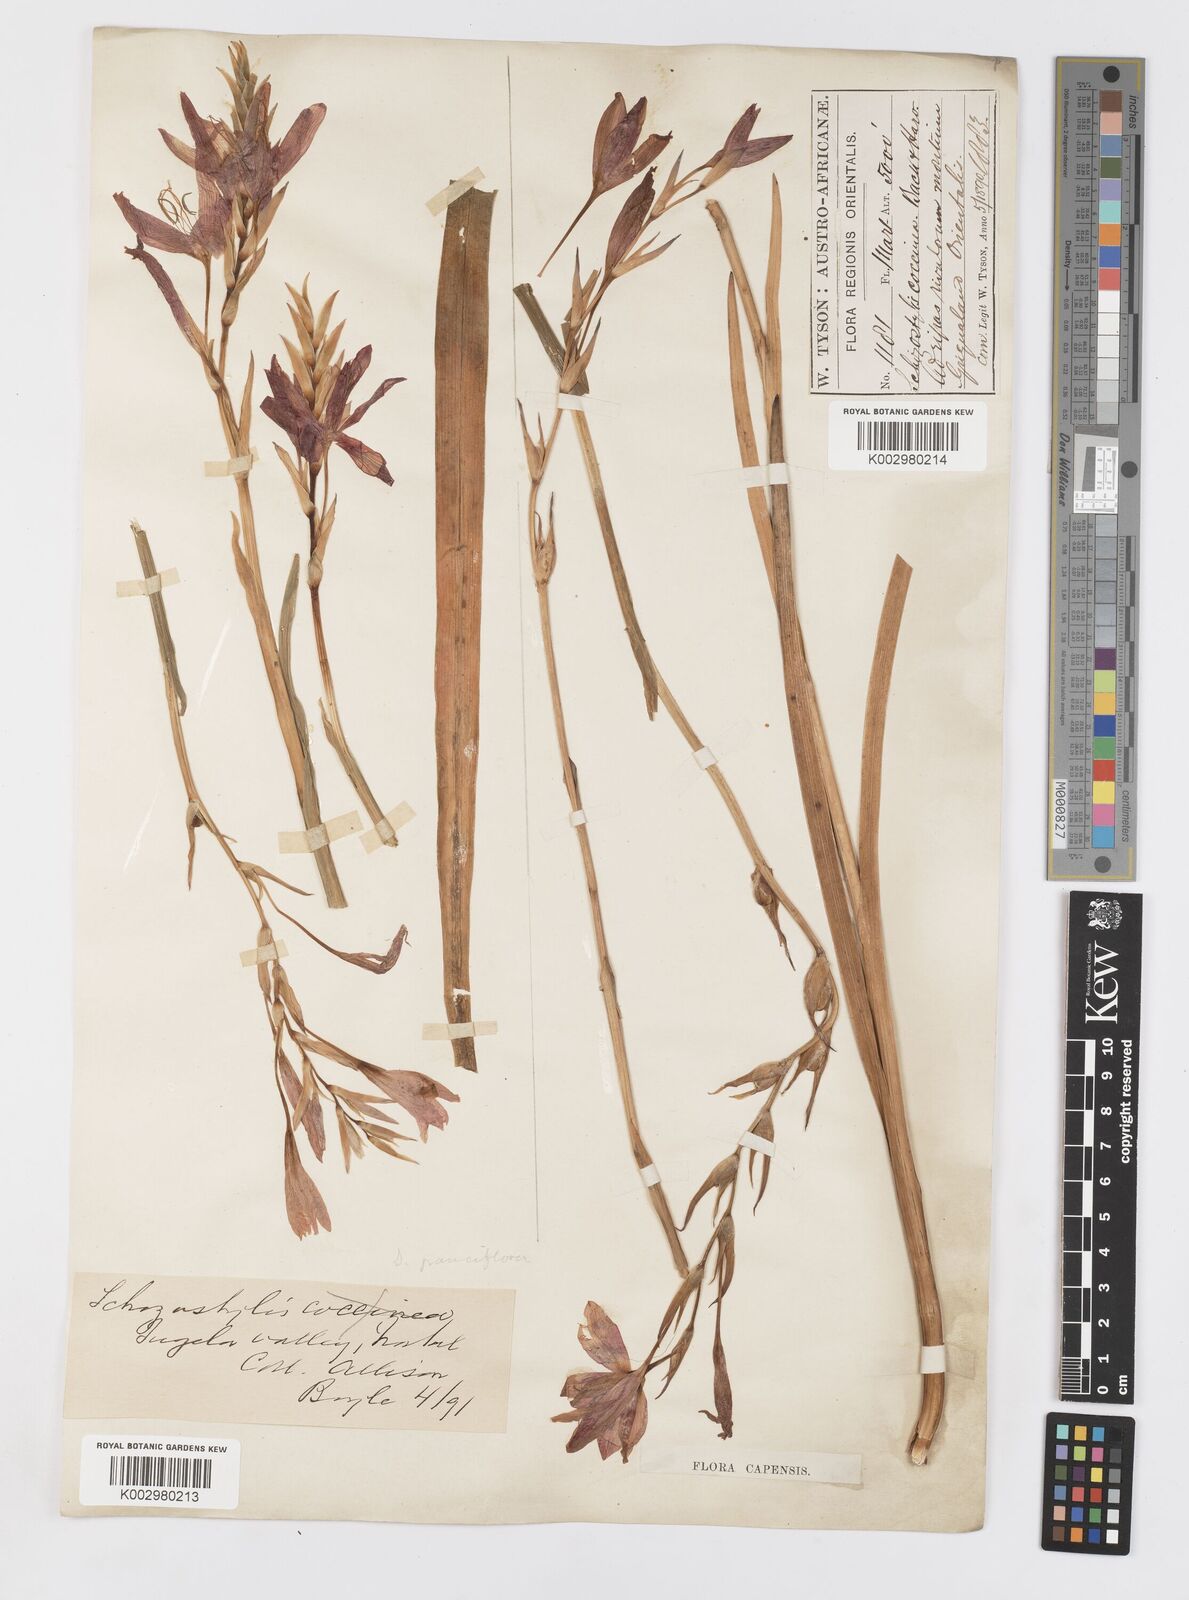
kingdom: Plantae
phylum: Tracheophyta
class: Liliopsida
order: Asparagales
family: Iridaceae
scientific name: Iridaceae
